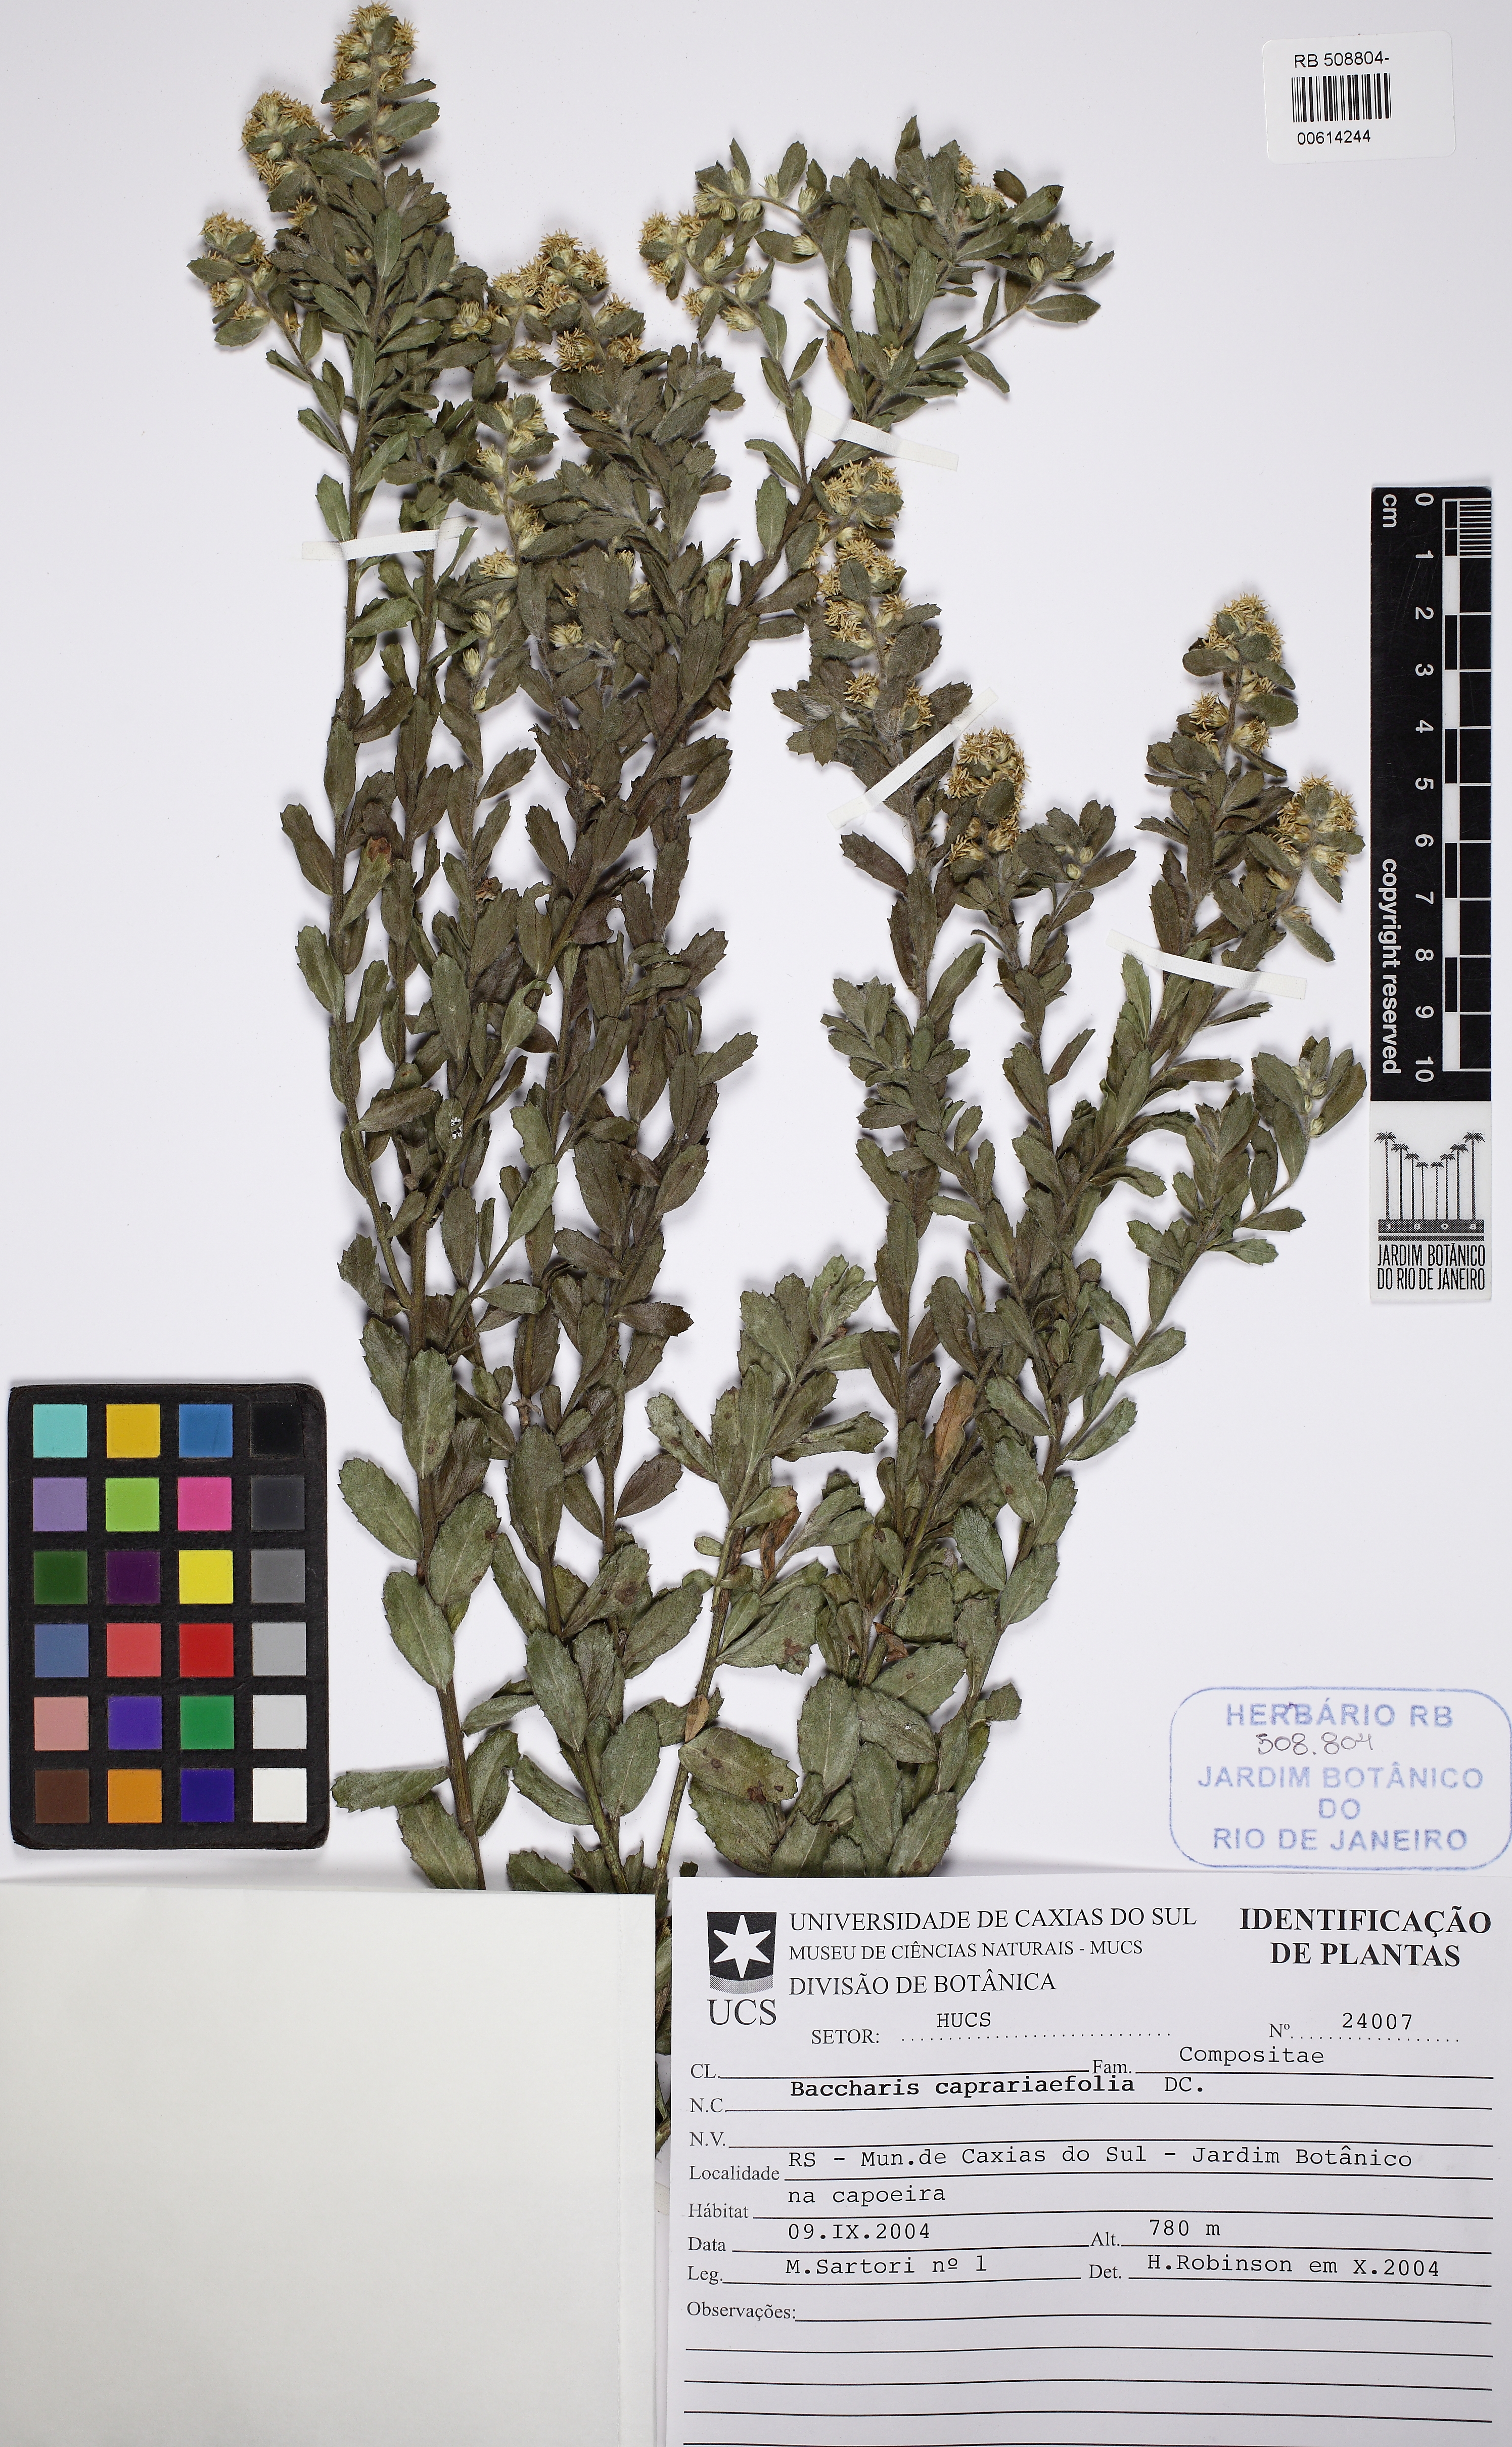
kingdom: Plantae
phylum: Tracheophyta
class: Magnoliopsida
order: Asterales
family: Asteraceae
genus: Baccharis
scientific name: Baccharis caprariifolia
